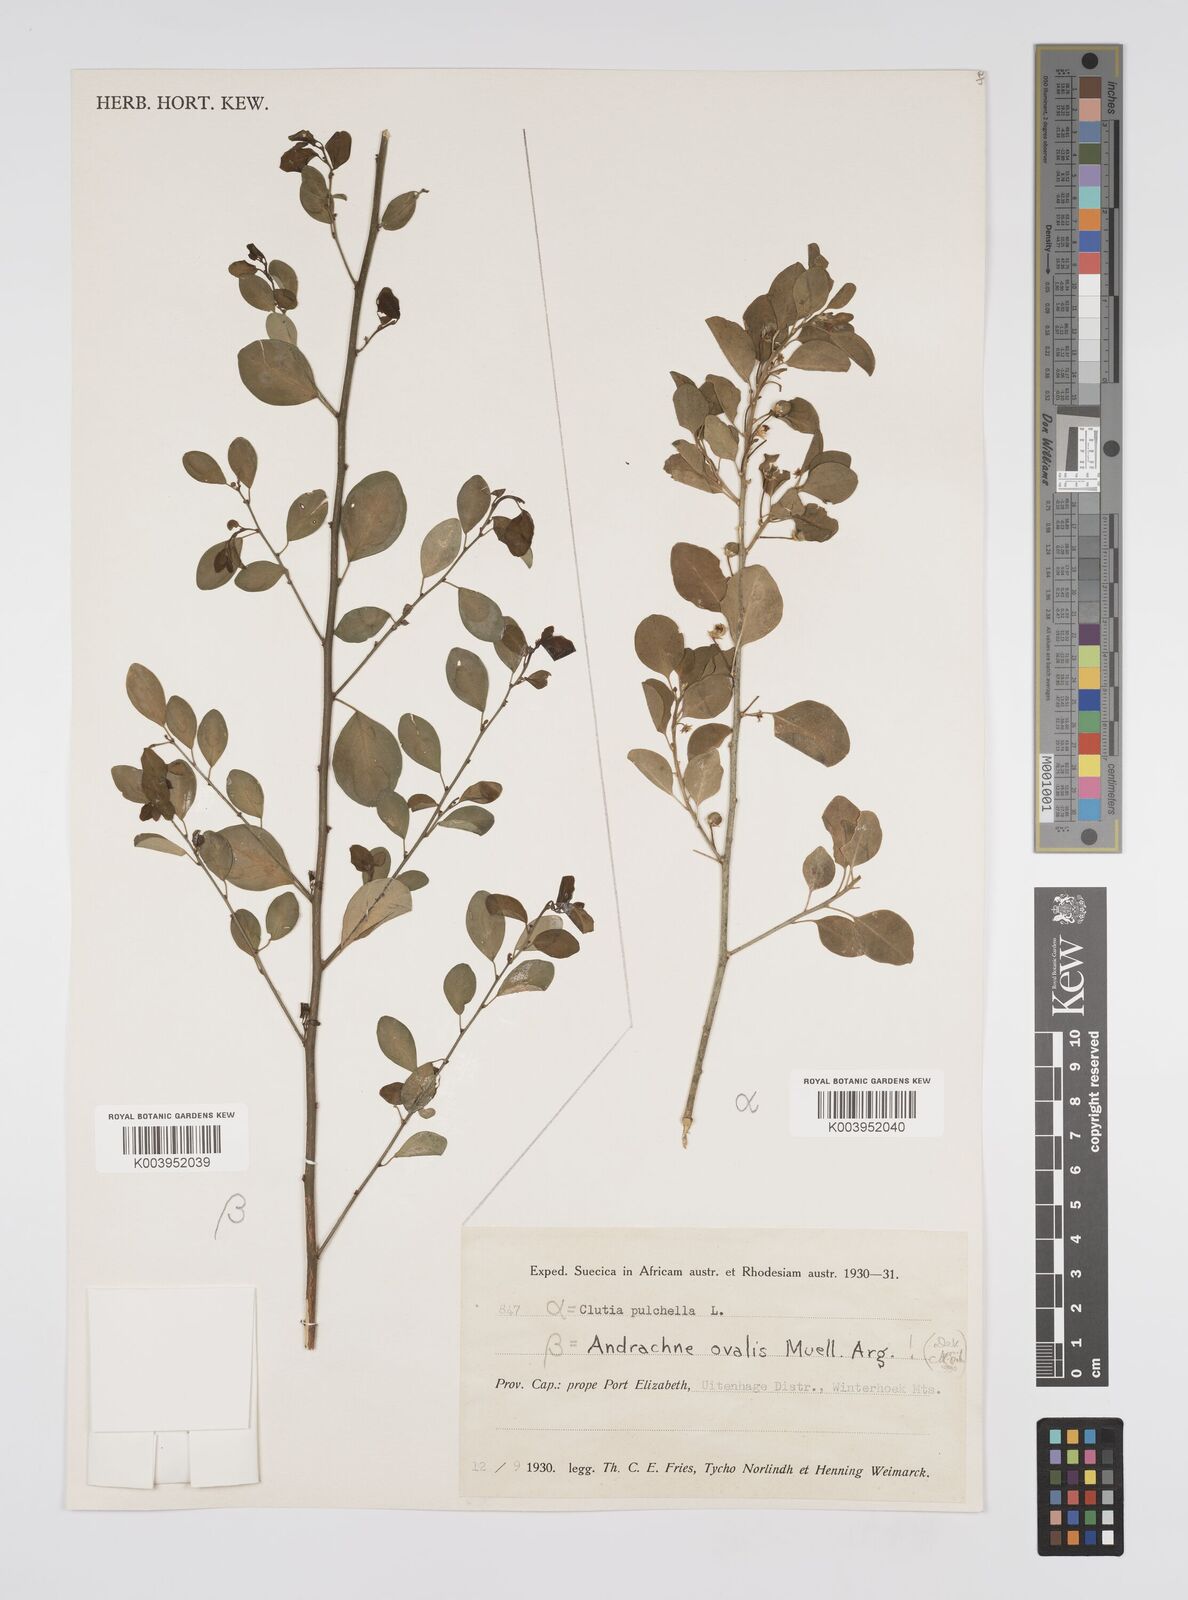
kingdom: Plantae
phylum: Tracheophyta
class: Magnoliopsida
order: Malpighiales
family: Peraceae
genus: Clutia
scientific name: Clutia pulchella
